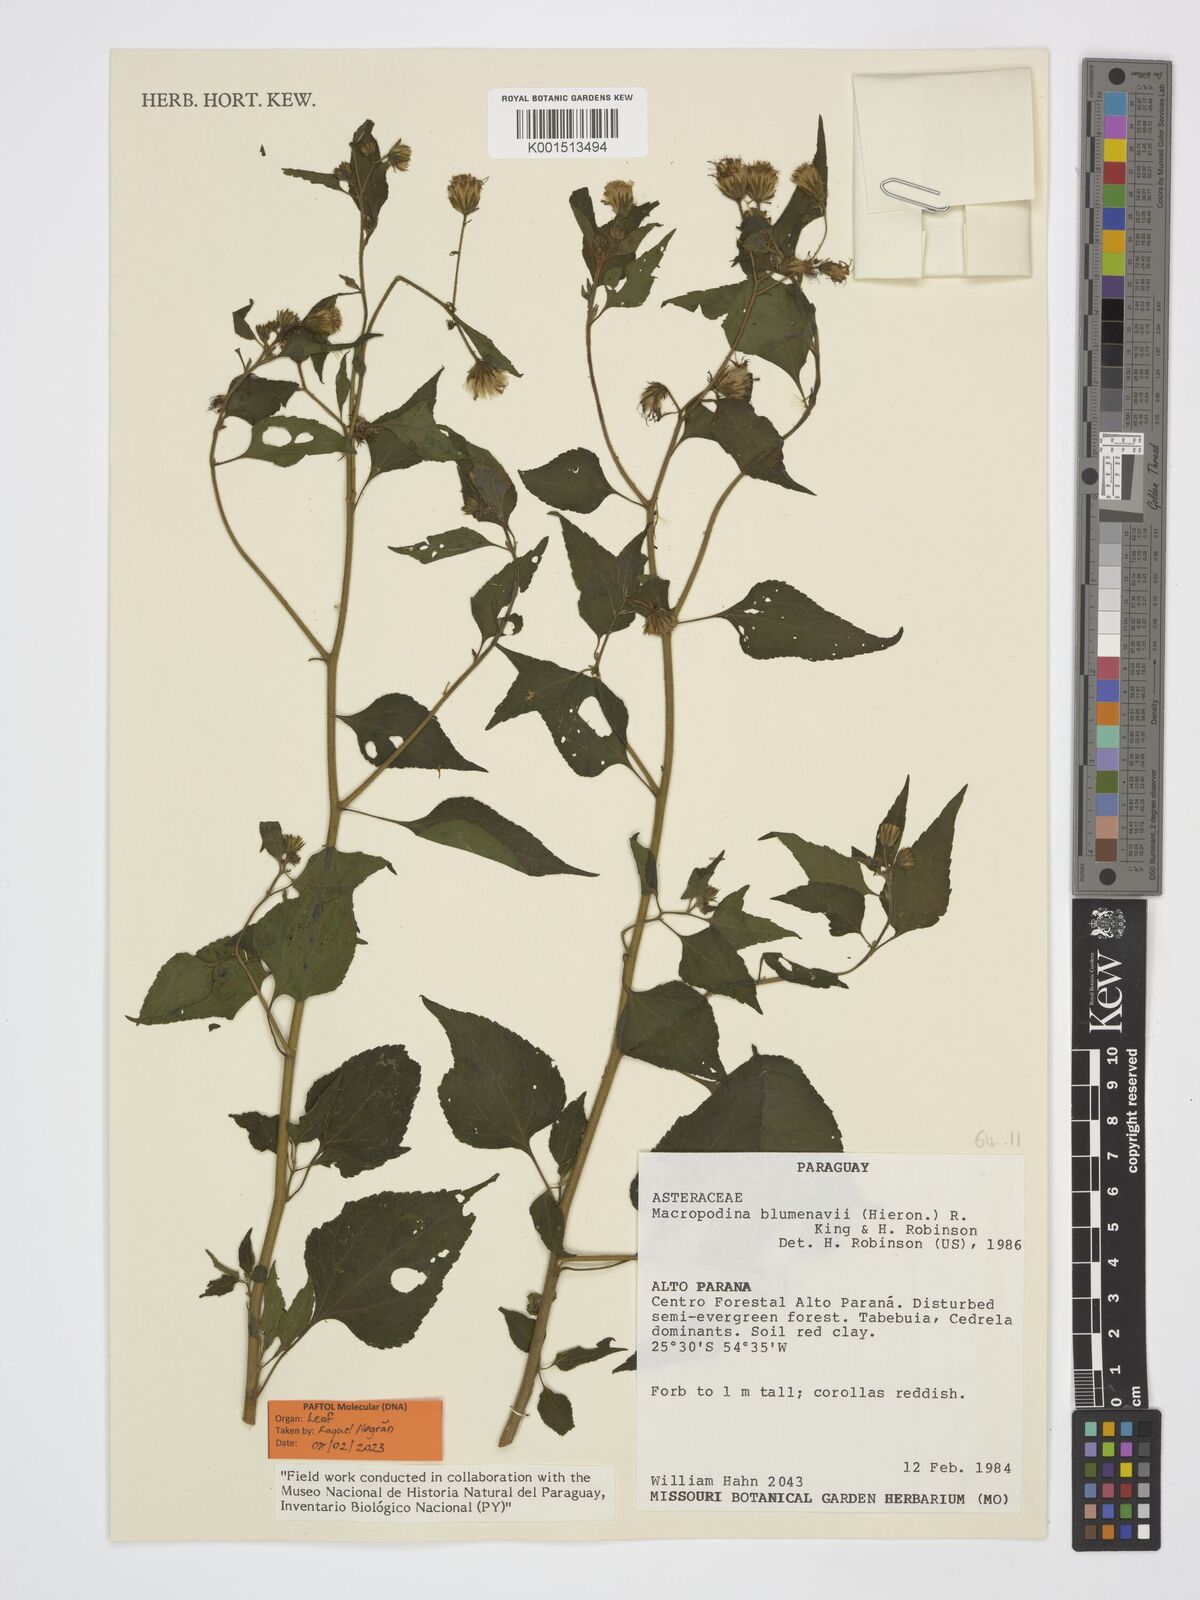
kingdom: Plantae
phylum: Tracheophyta
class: Magnoliopsida
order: Asterales
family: Asteraceae
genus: Macropodina
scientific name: Macropodina blumenavii
